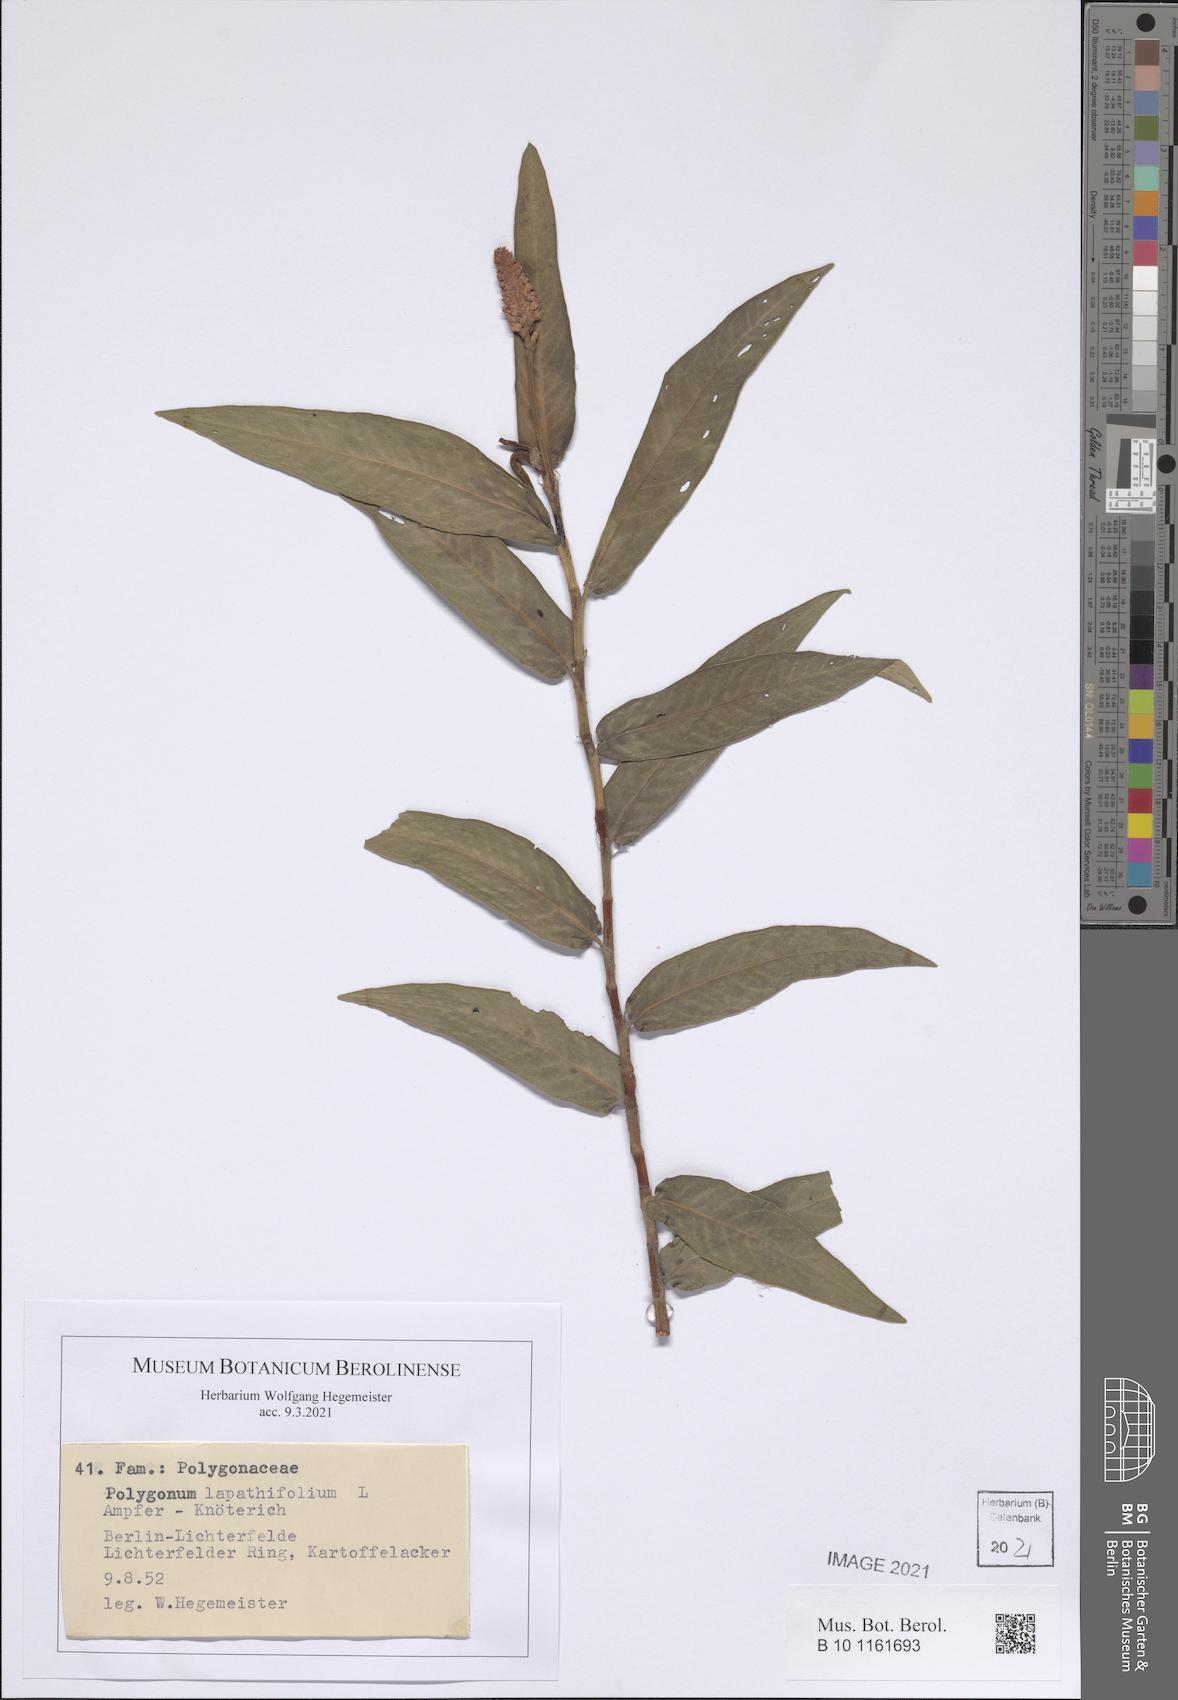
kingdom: Plantae
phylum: Tracheophyta
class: Magnoliopsida
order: Caryophyllales
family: Polygonaceae
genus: Persicaria
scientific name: Persicaria lapathifolia
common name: Curlytop knotweed
